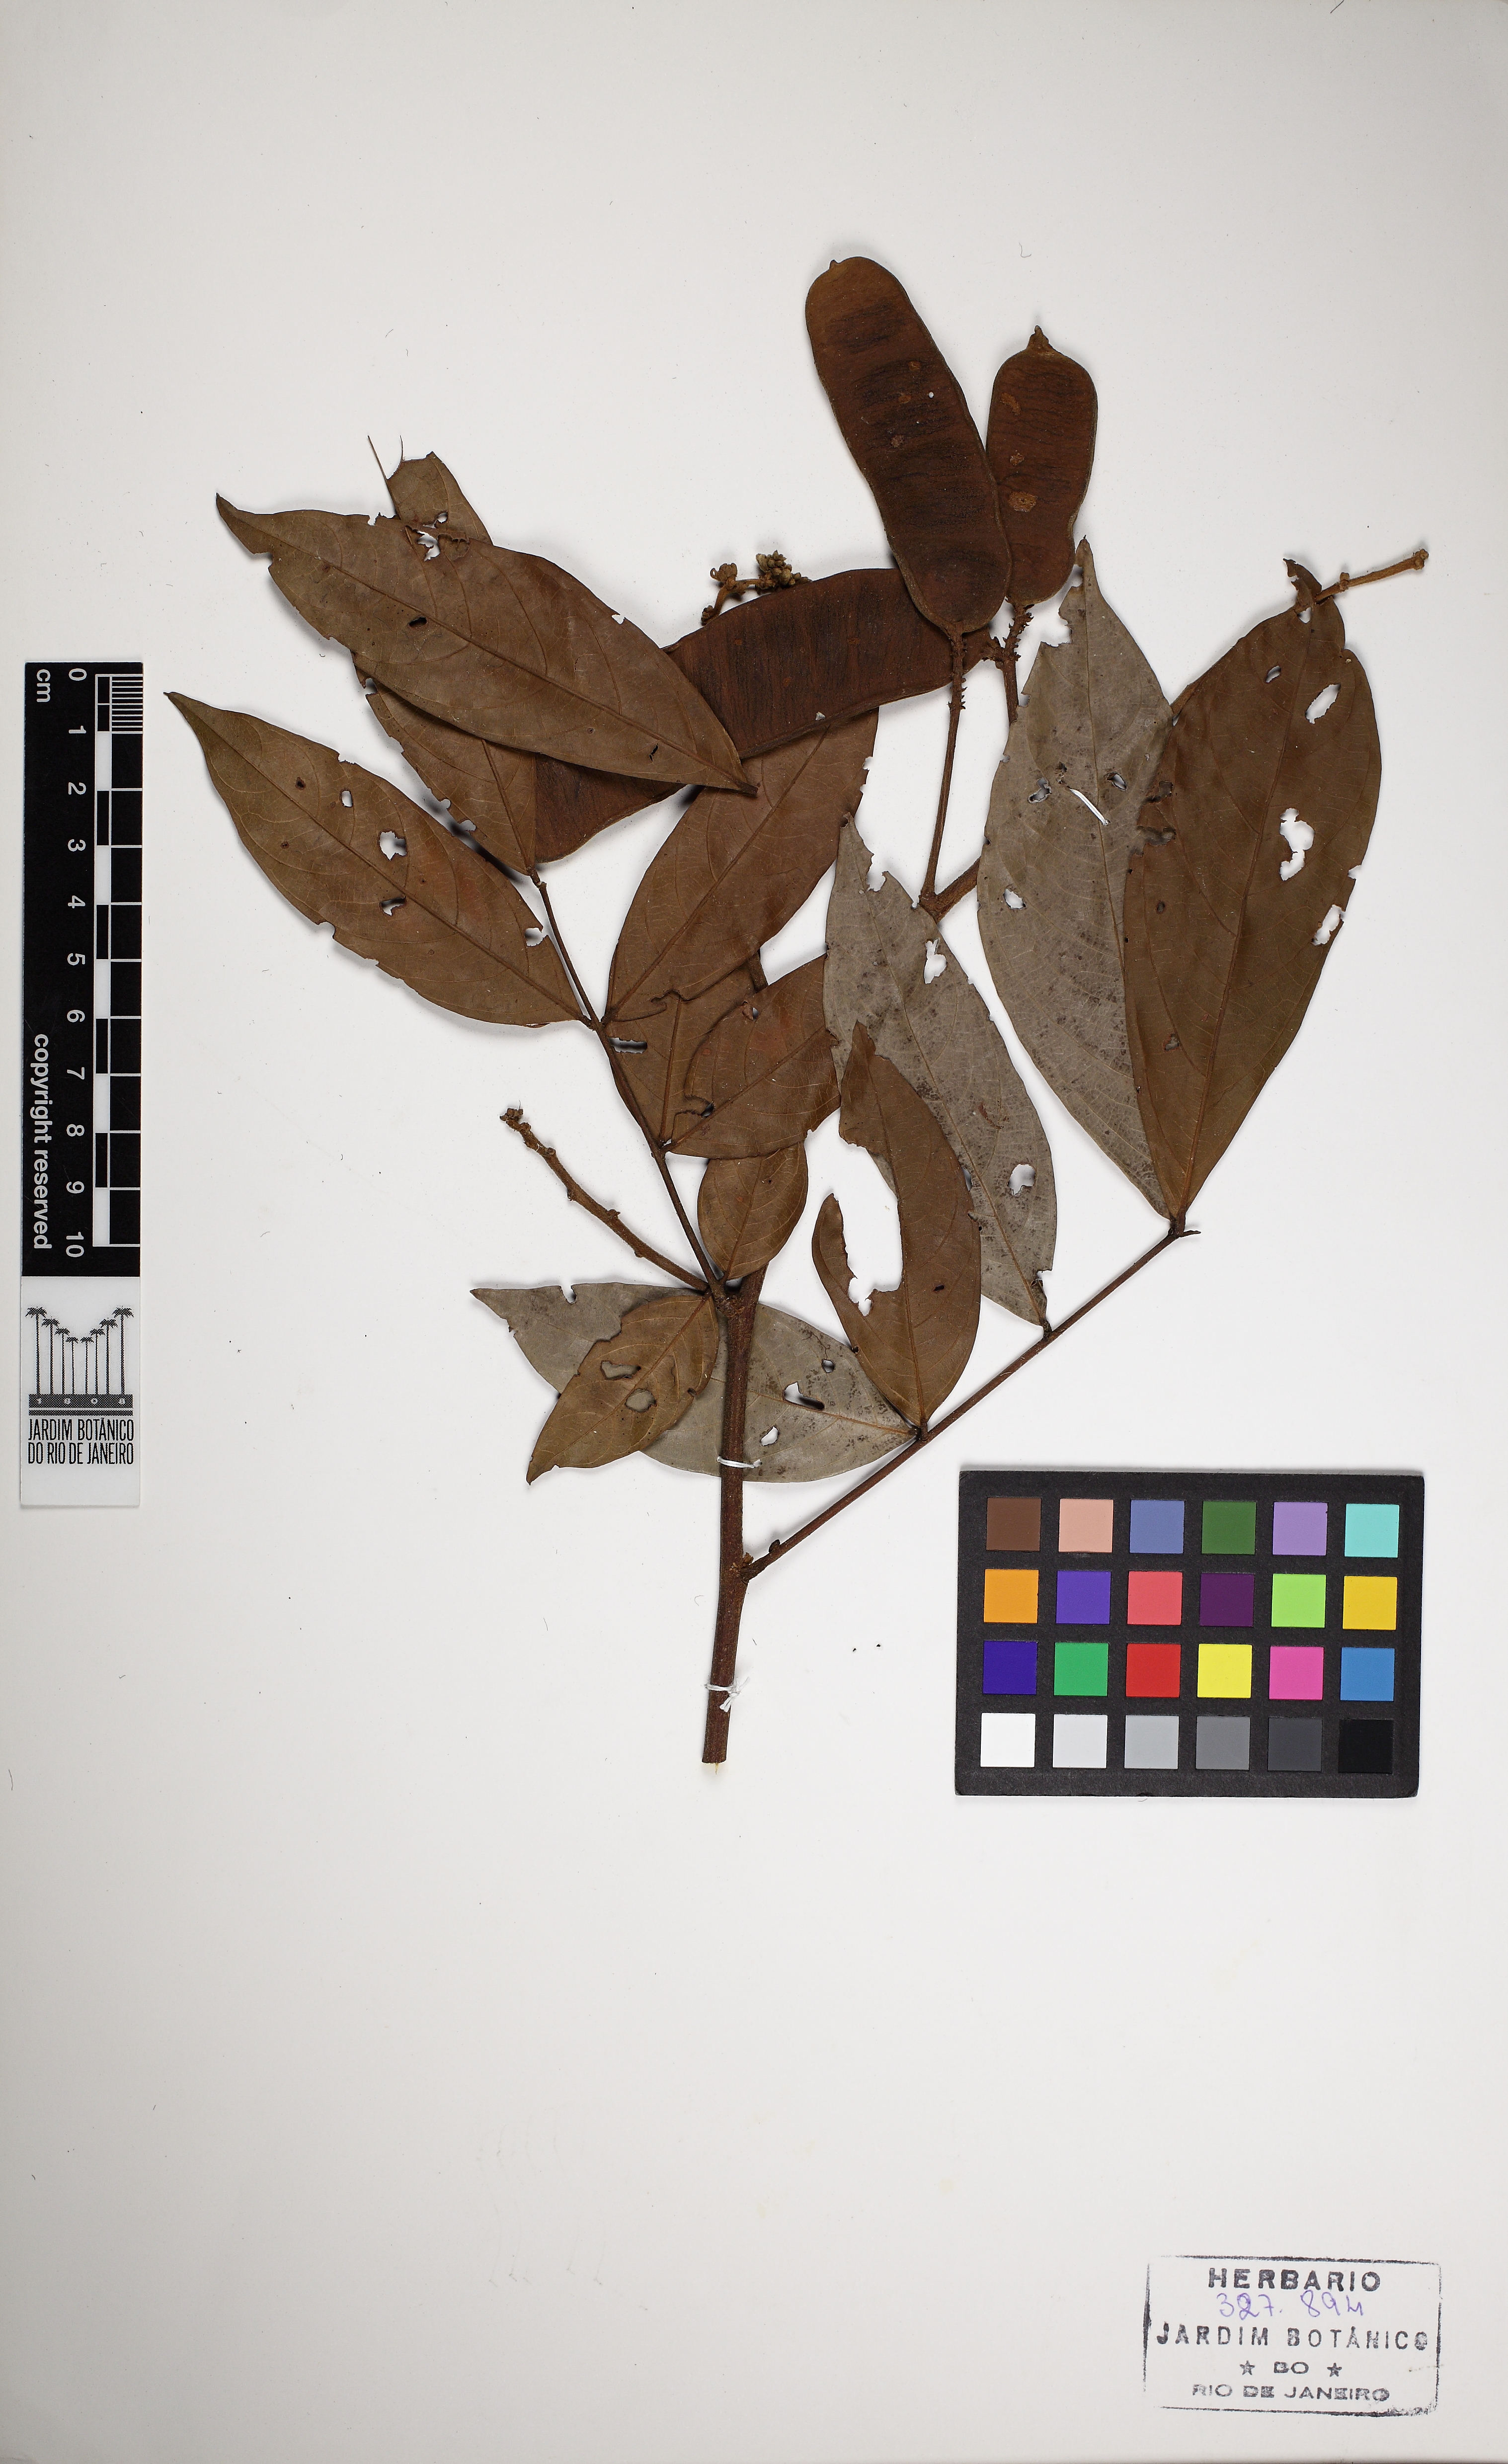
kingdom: Plantae
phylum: Tracheophyta
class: Magnoliopsida
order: Fabales
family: Fabaceae
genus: Inga
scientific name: Inga nobilis
